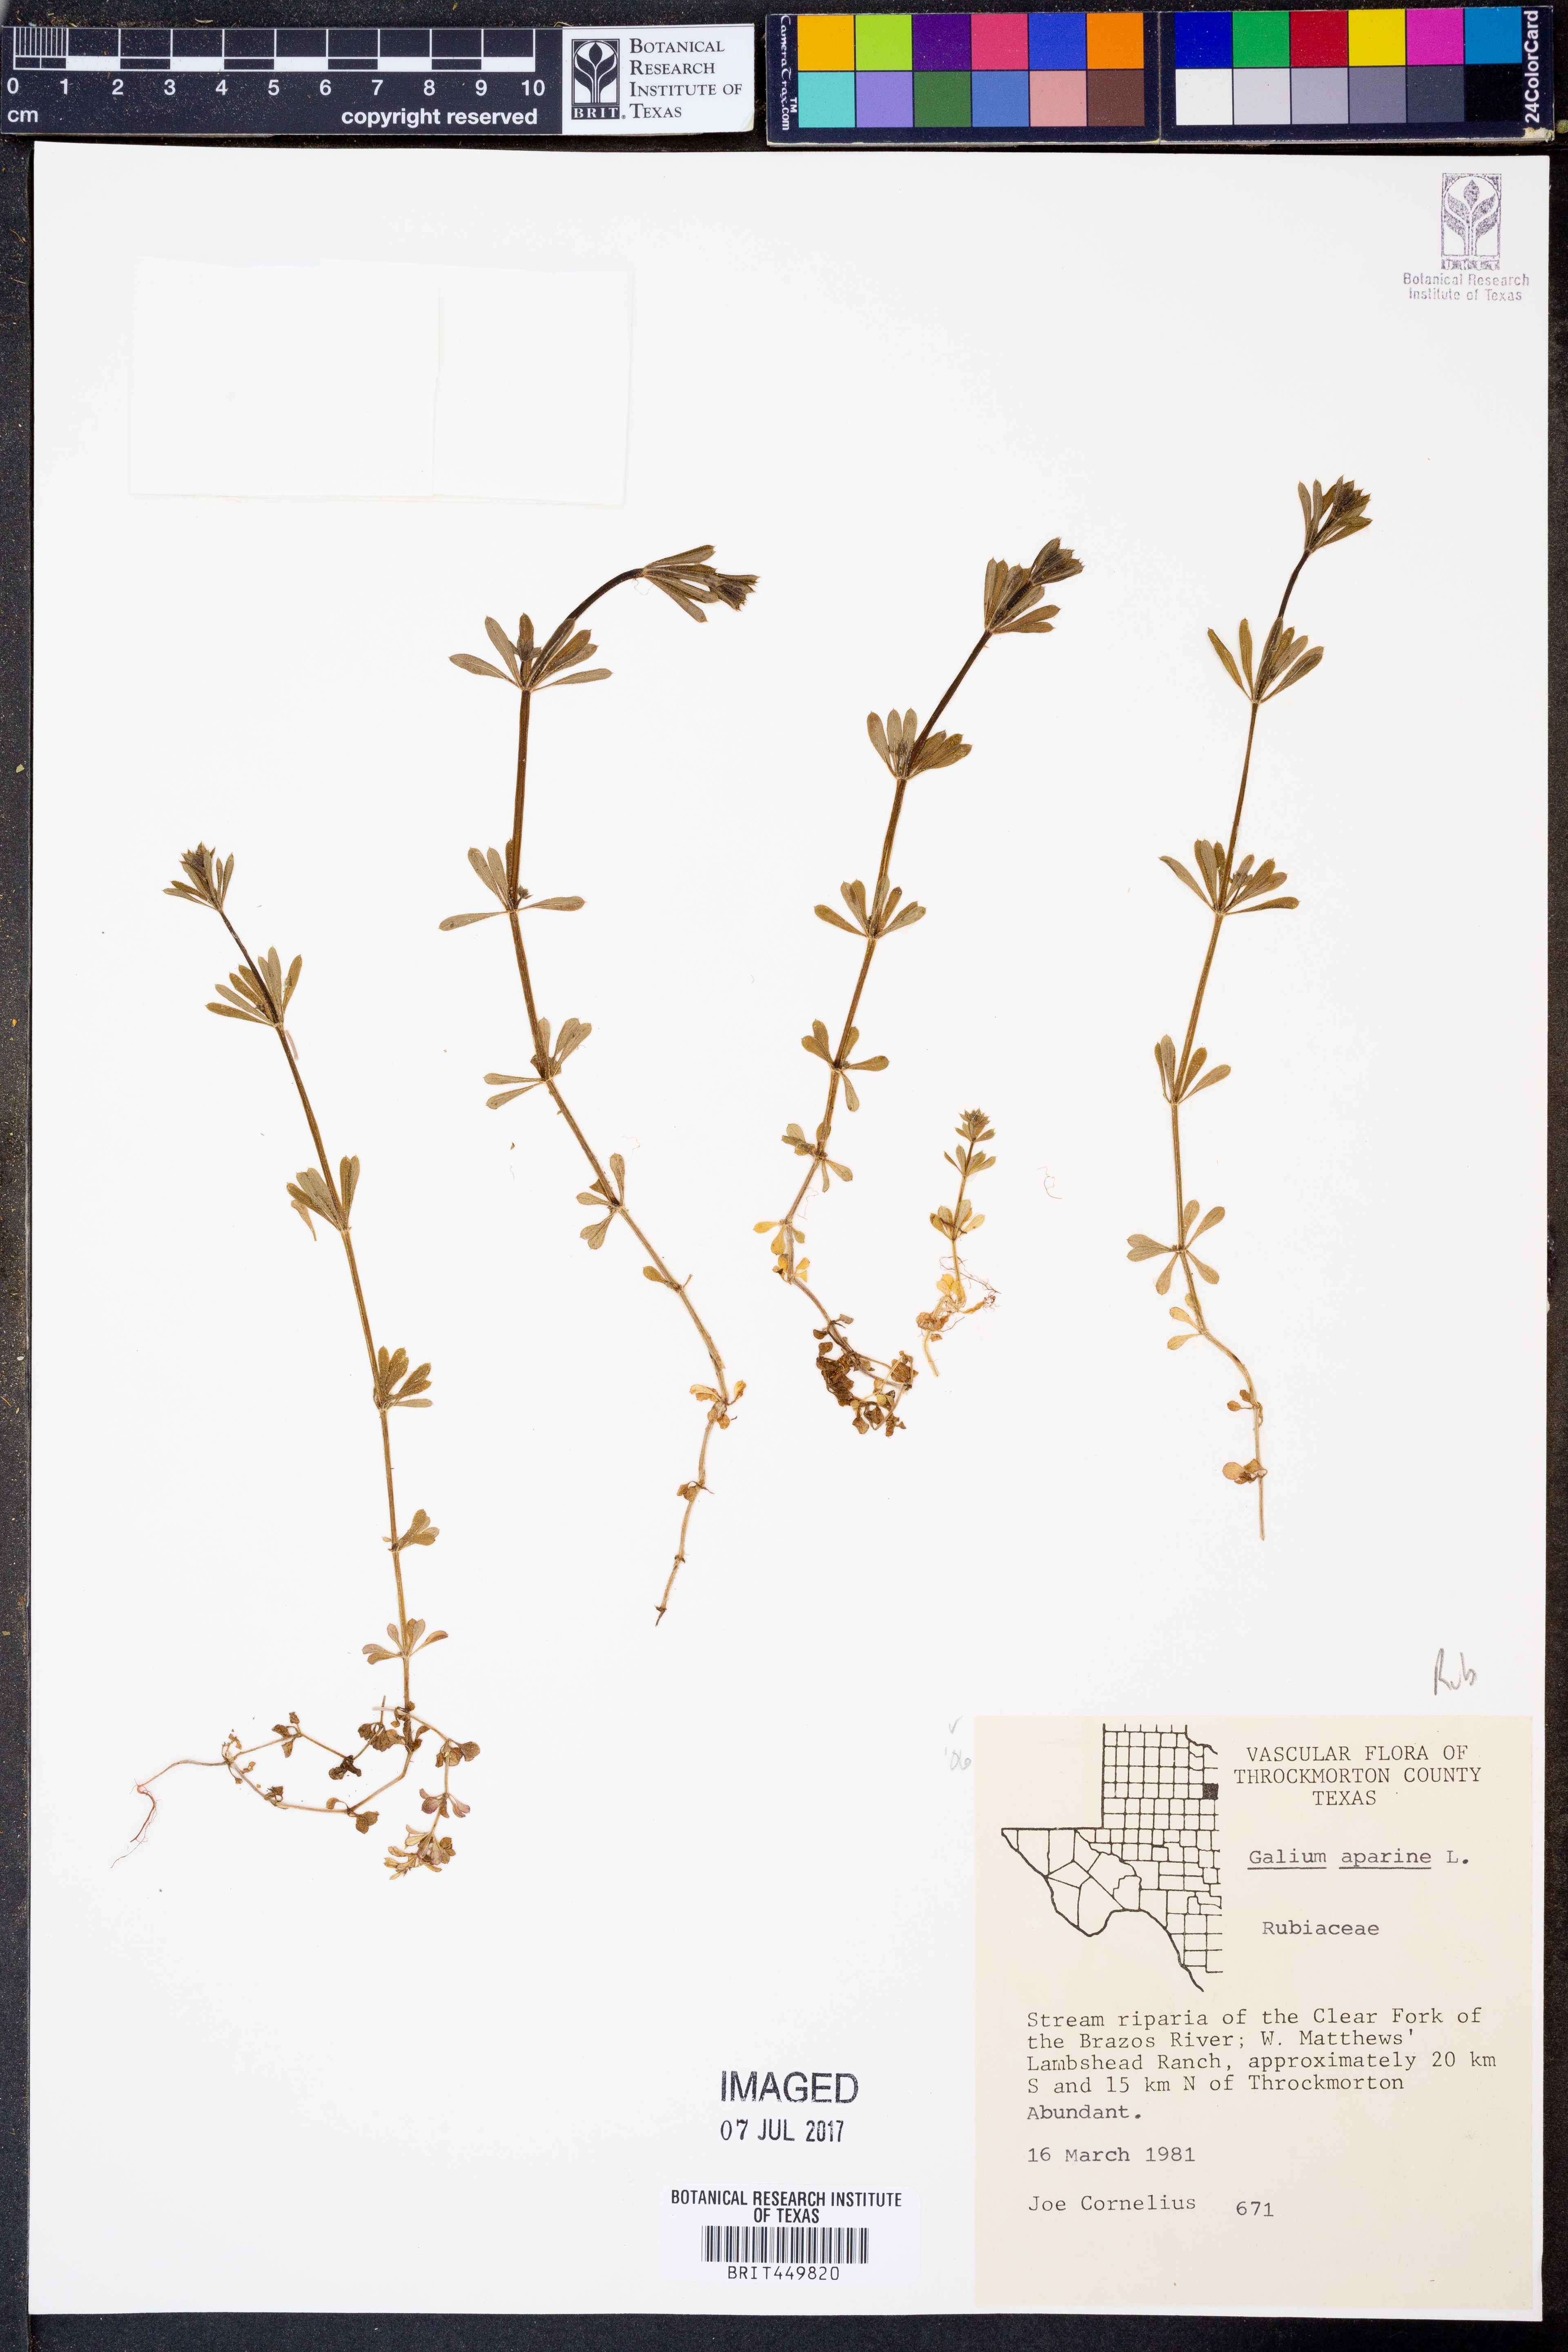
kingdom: Plantae
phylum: Tracheophyta
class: Magnoliopsida
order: Gentianales
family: Rubiaceae
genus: Galium
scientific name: Galium aparine
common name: Cleavers
